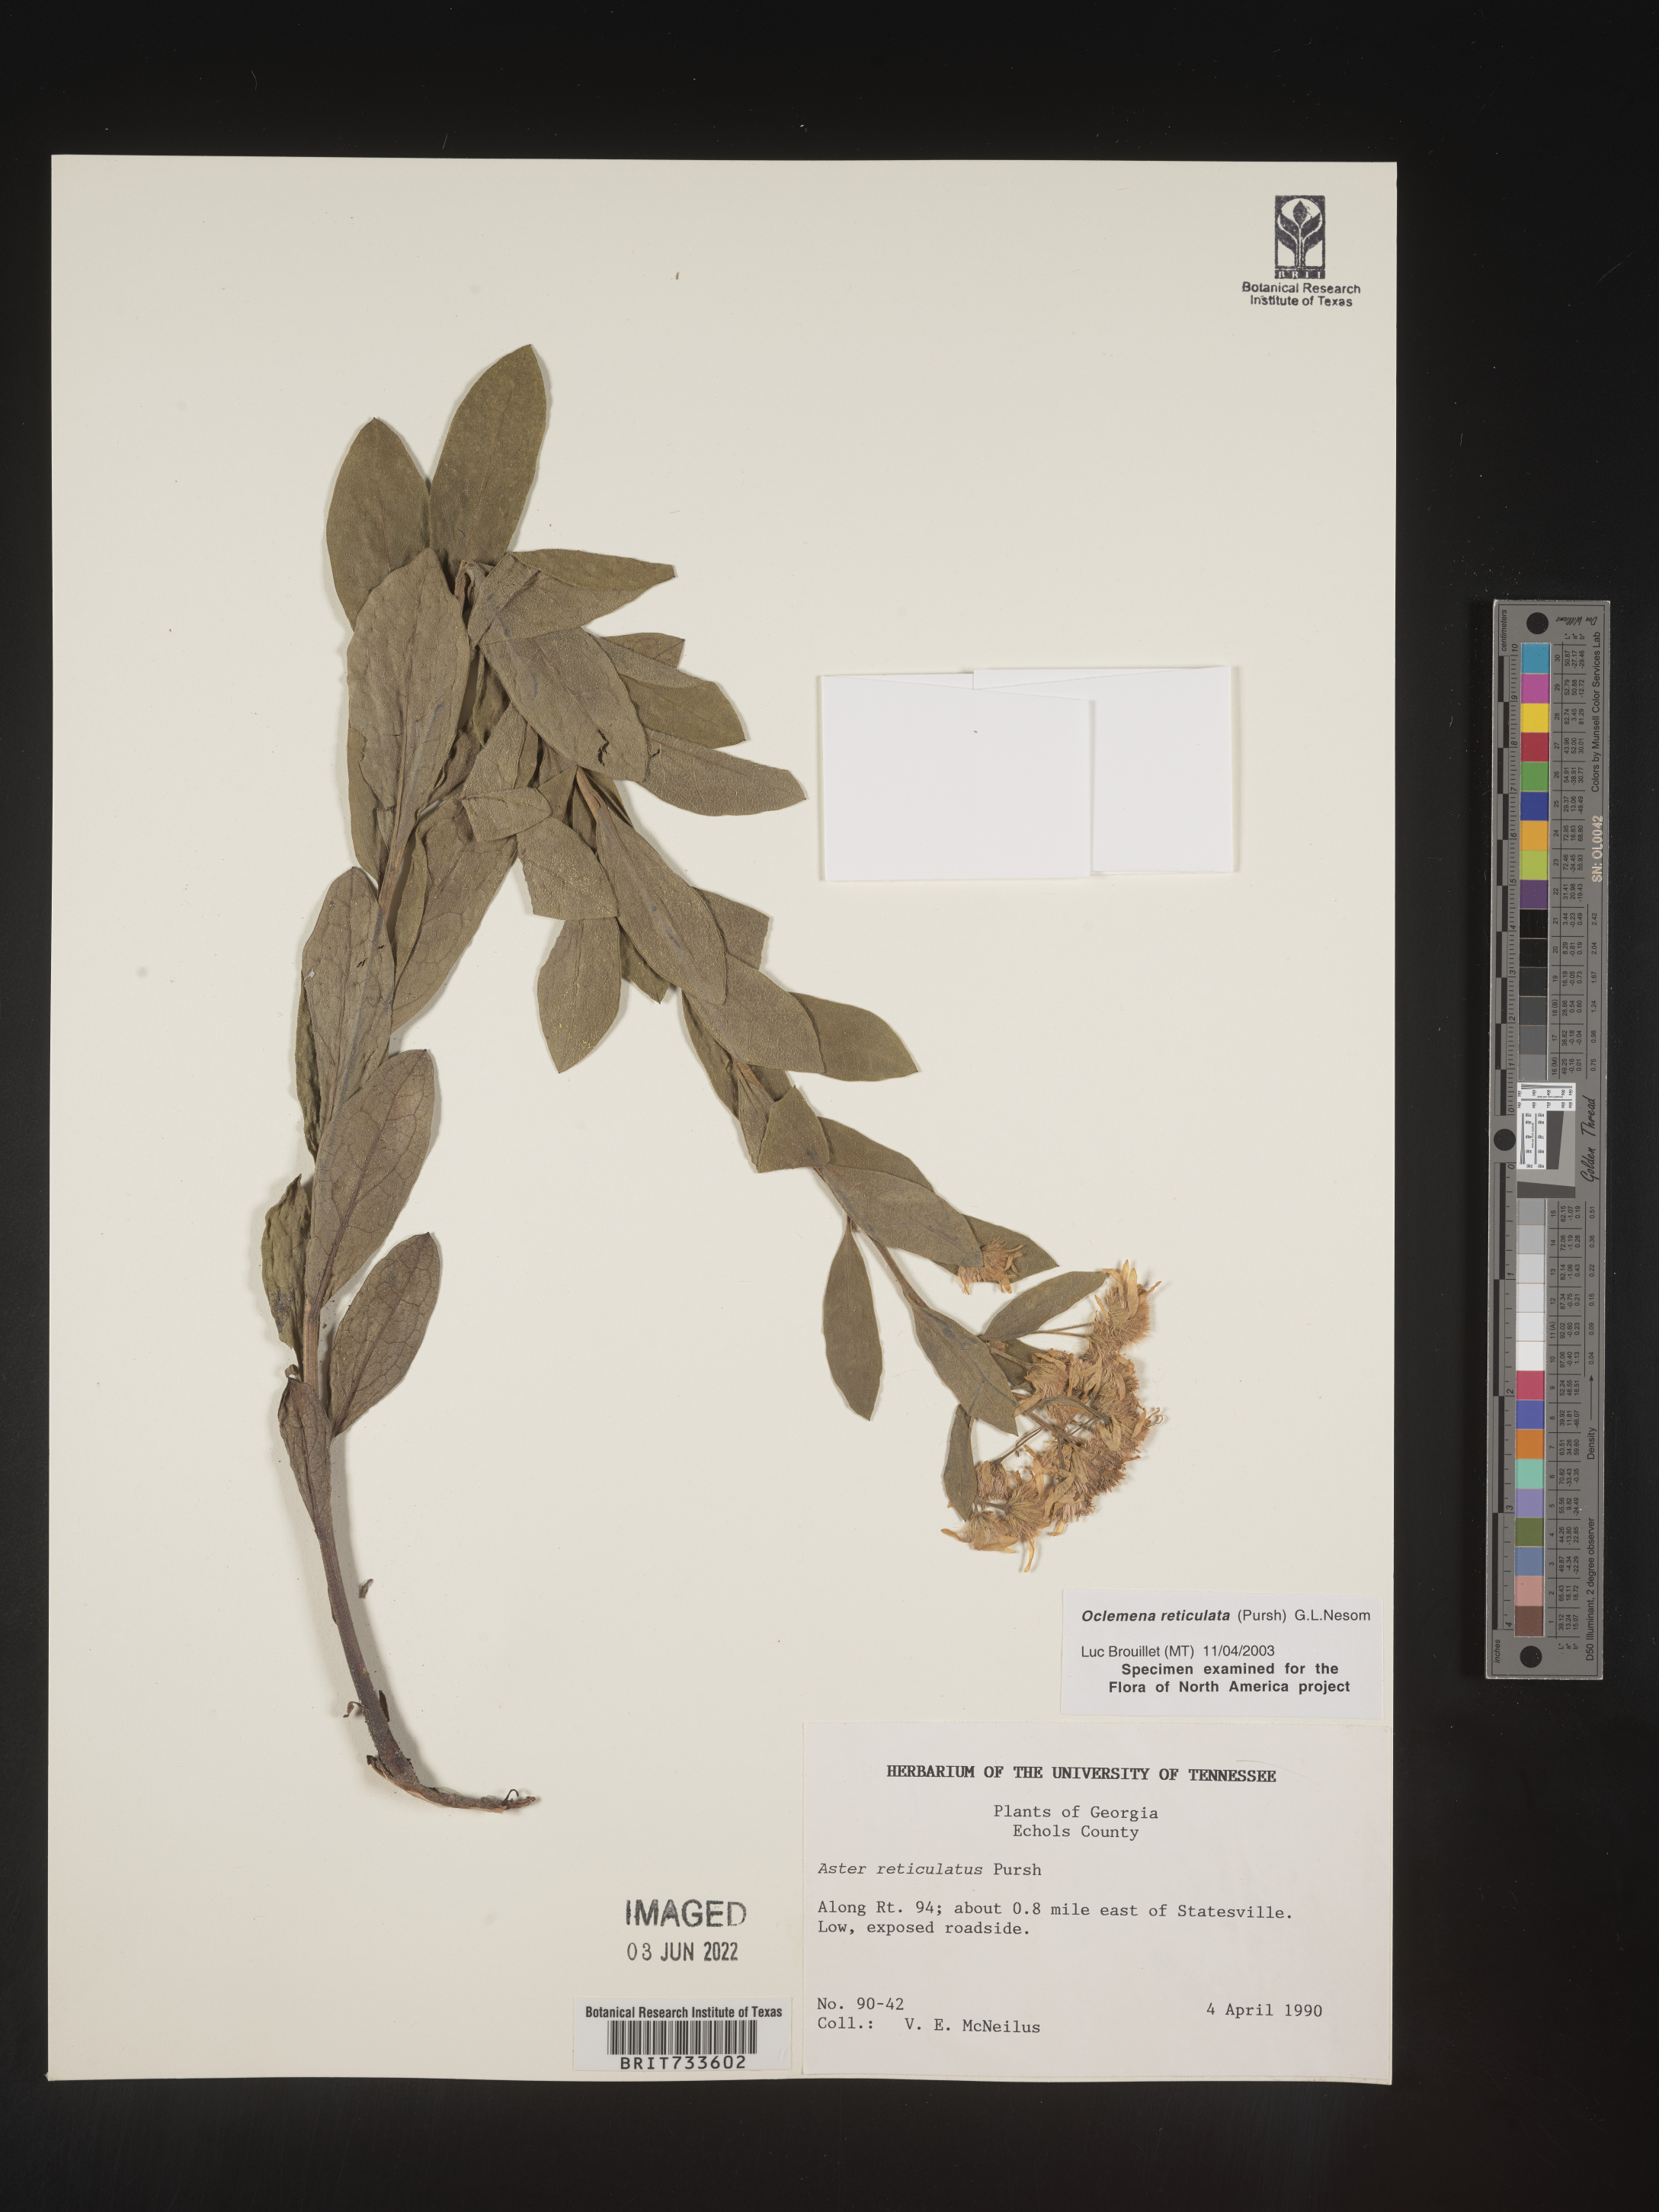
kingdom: Plantae
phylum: Tracheophyta
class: Magnoliopsida
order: Asterales
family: Asteraceae
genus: Oclemena
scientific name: Oclemena reticulata
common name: Pinebarren aster
